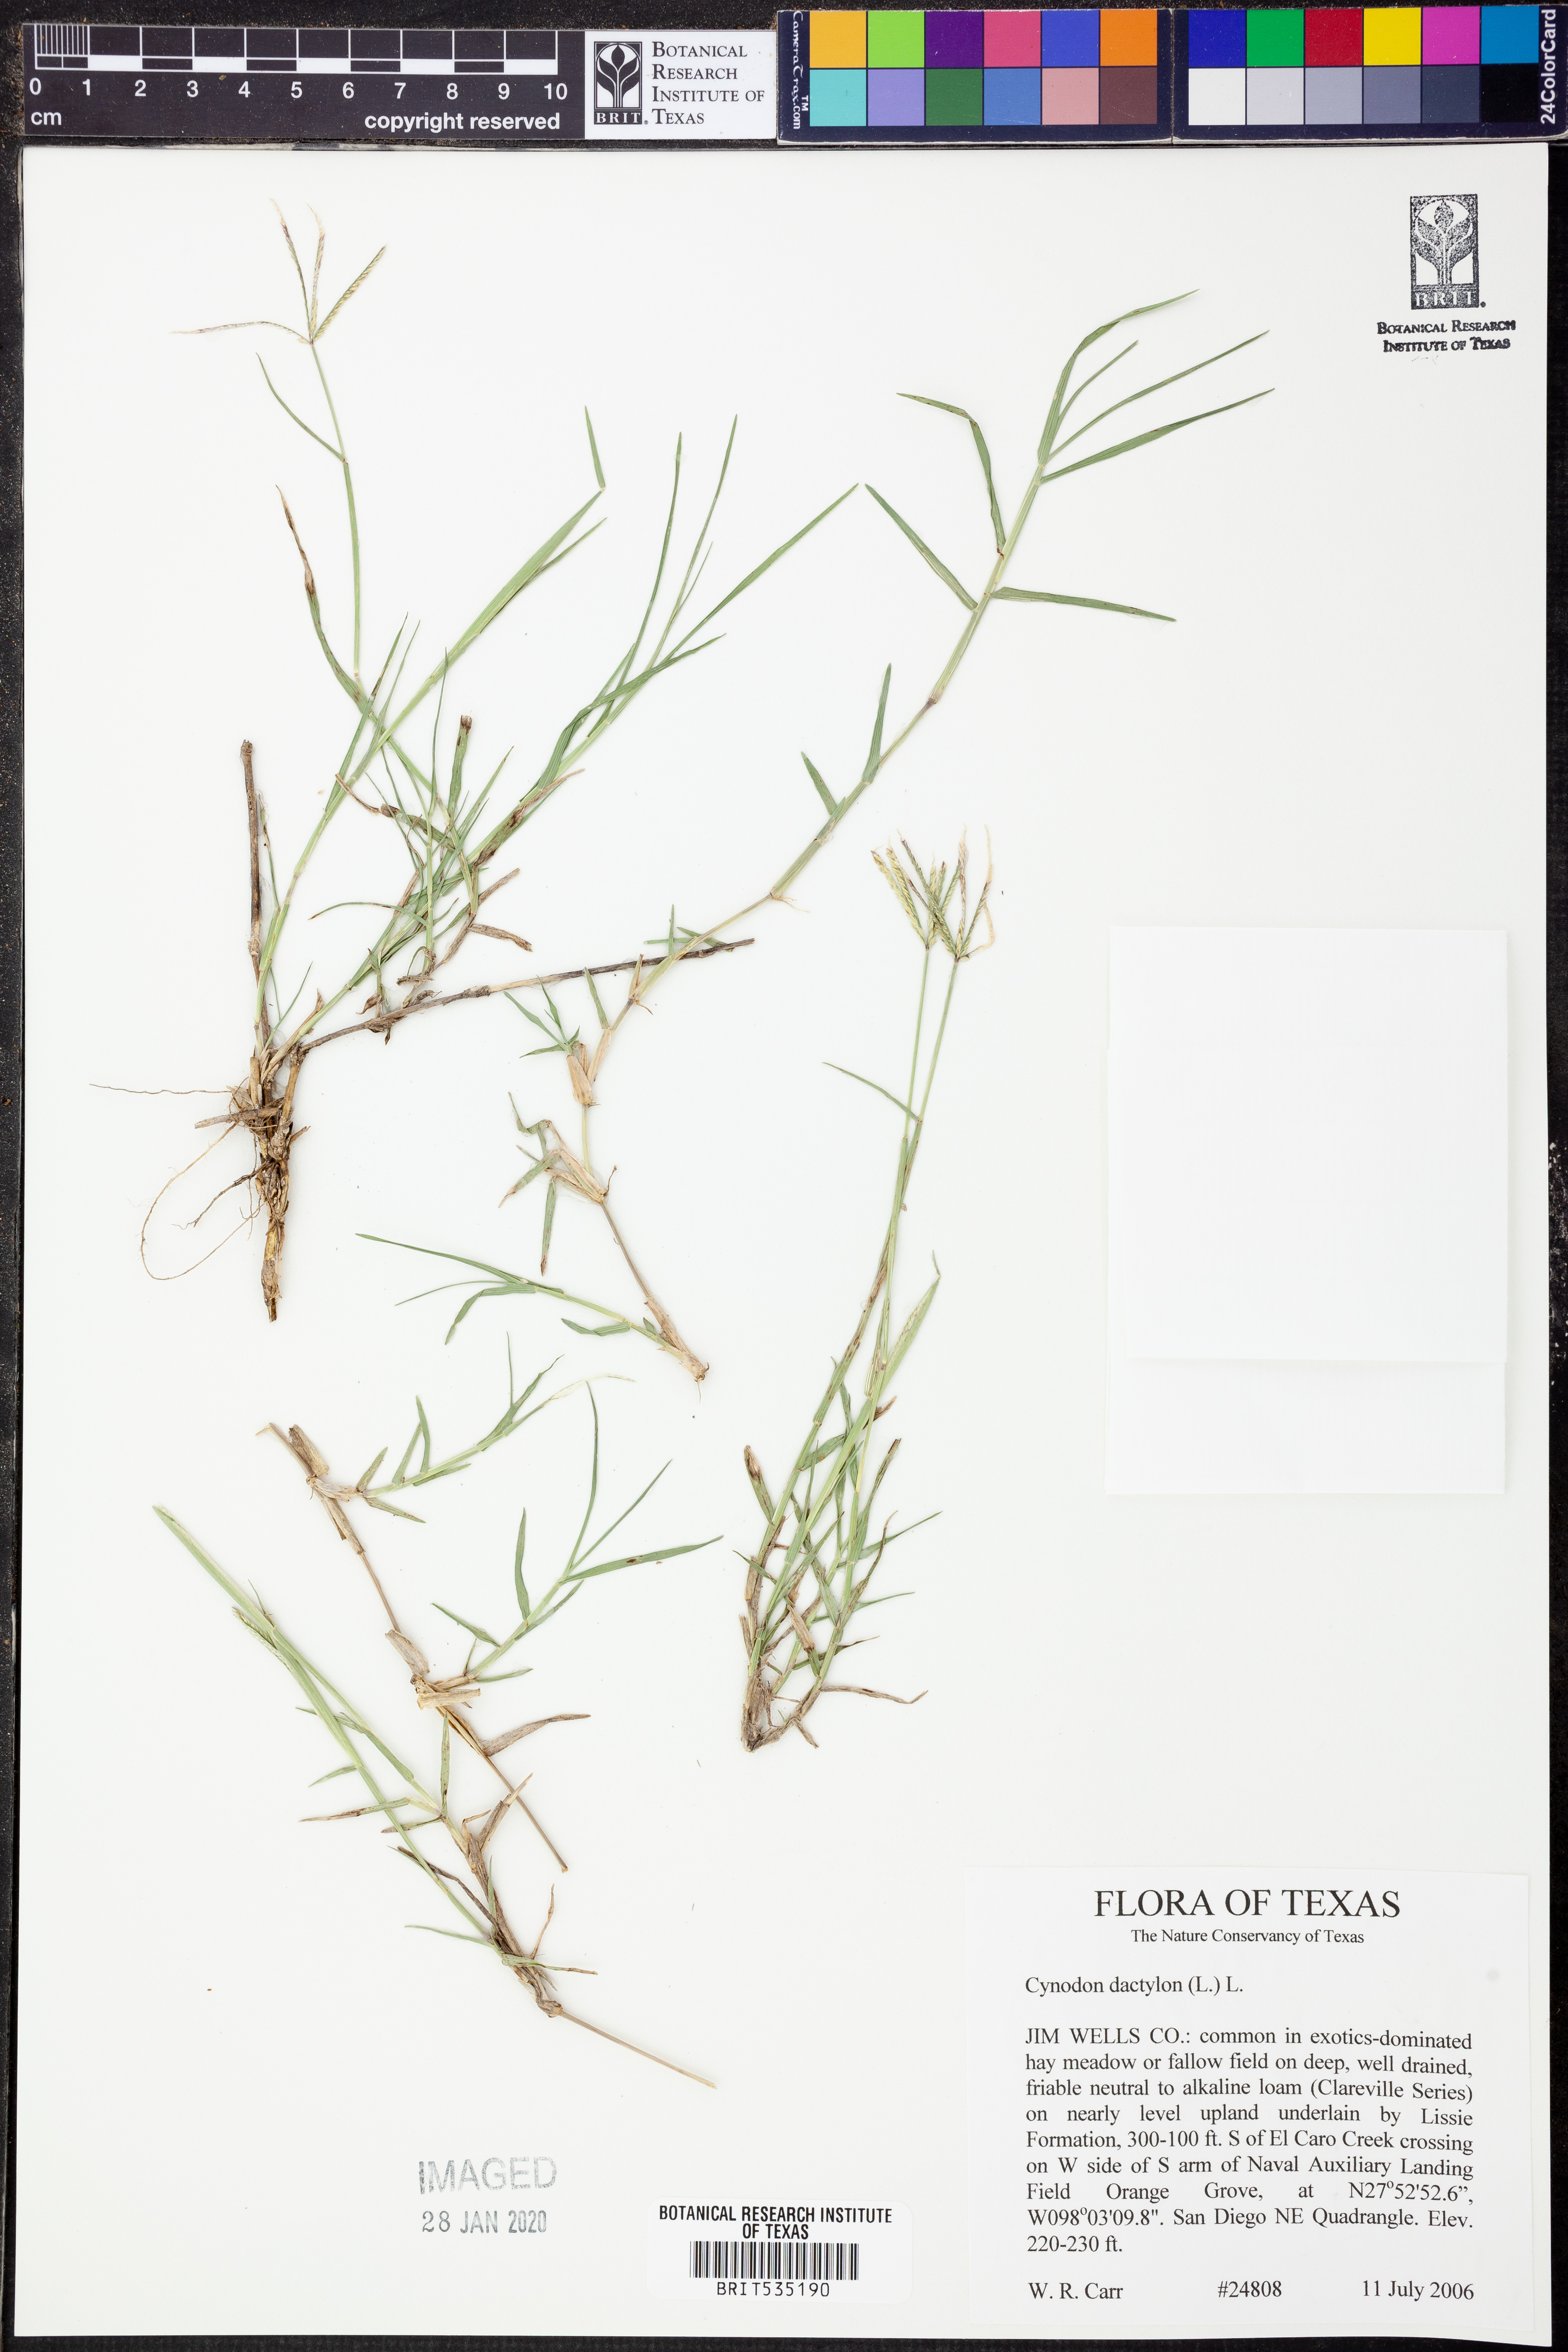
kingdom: Plantae
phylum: Tracheophyta
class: Liliopsida
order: Poales
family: Poaceae
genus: Cynodon
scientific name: Cynodon dactylon
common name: Bermuda grass
